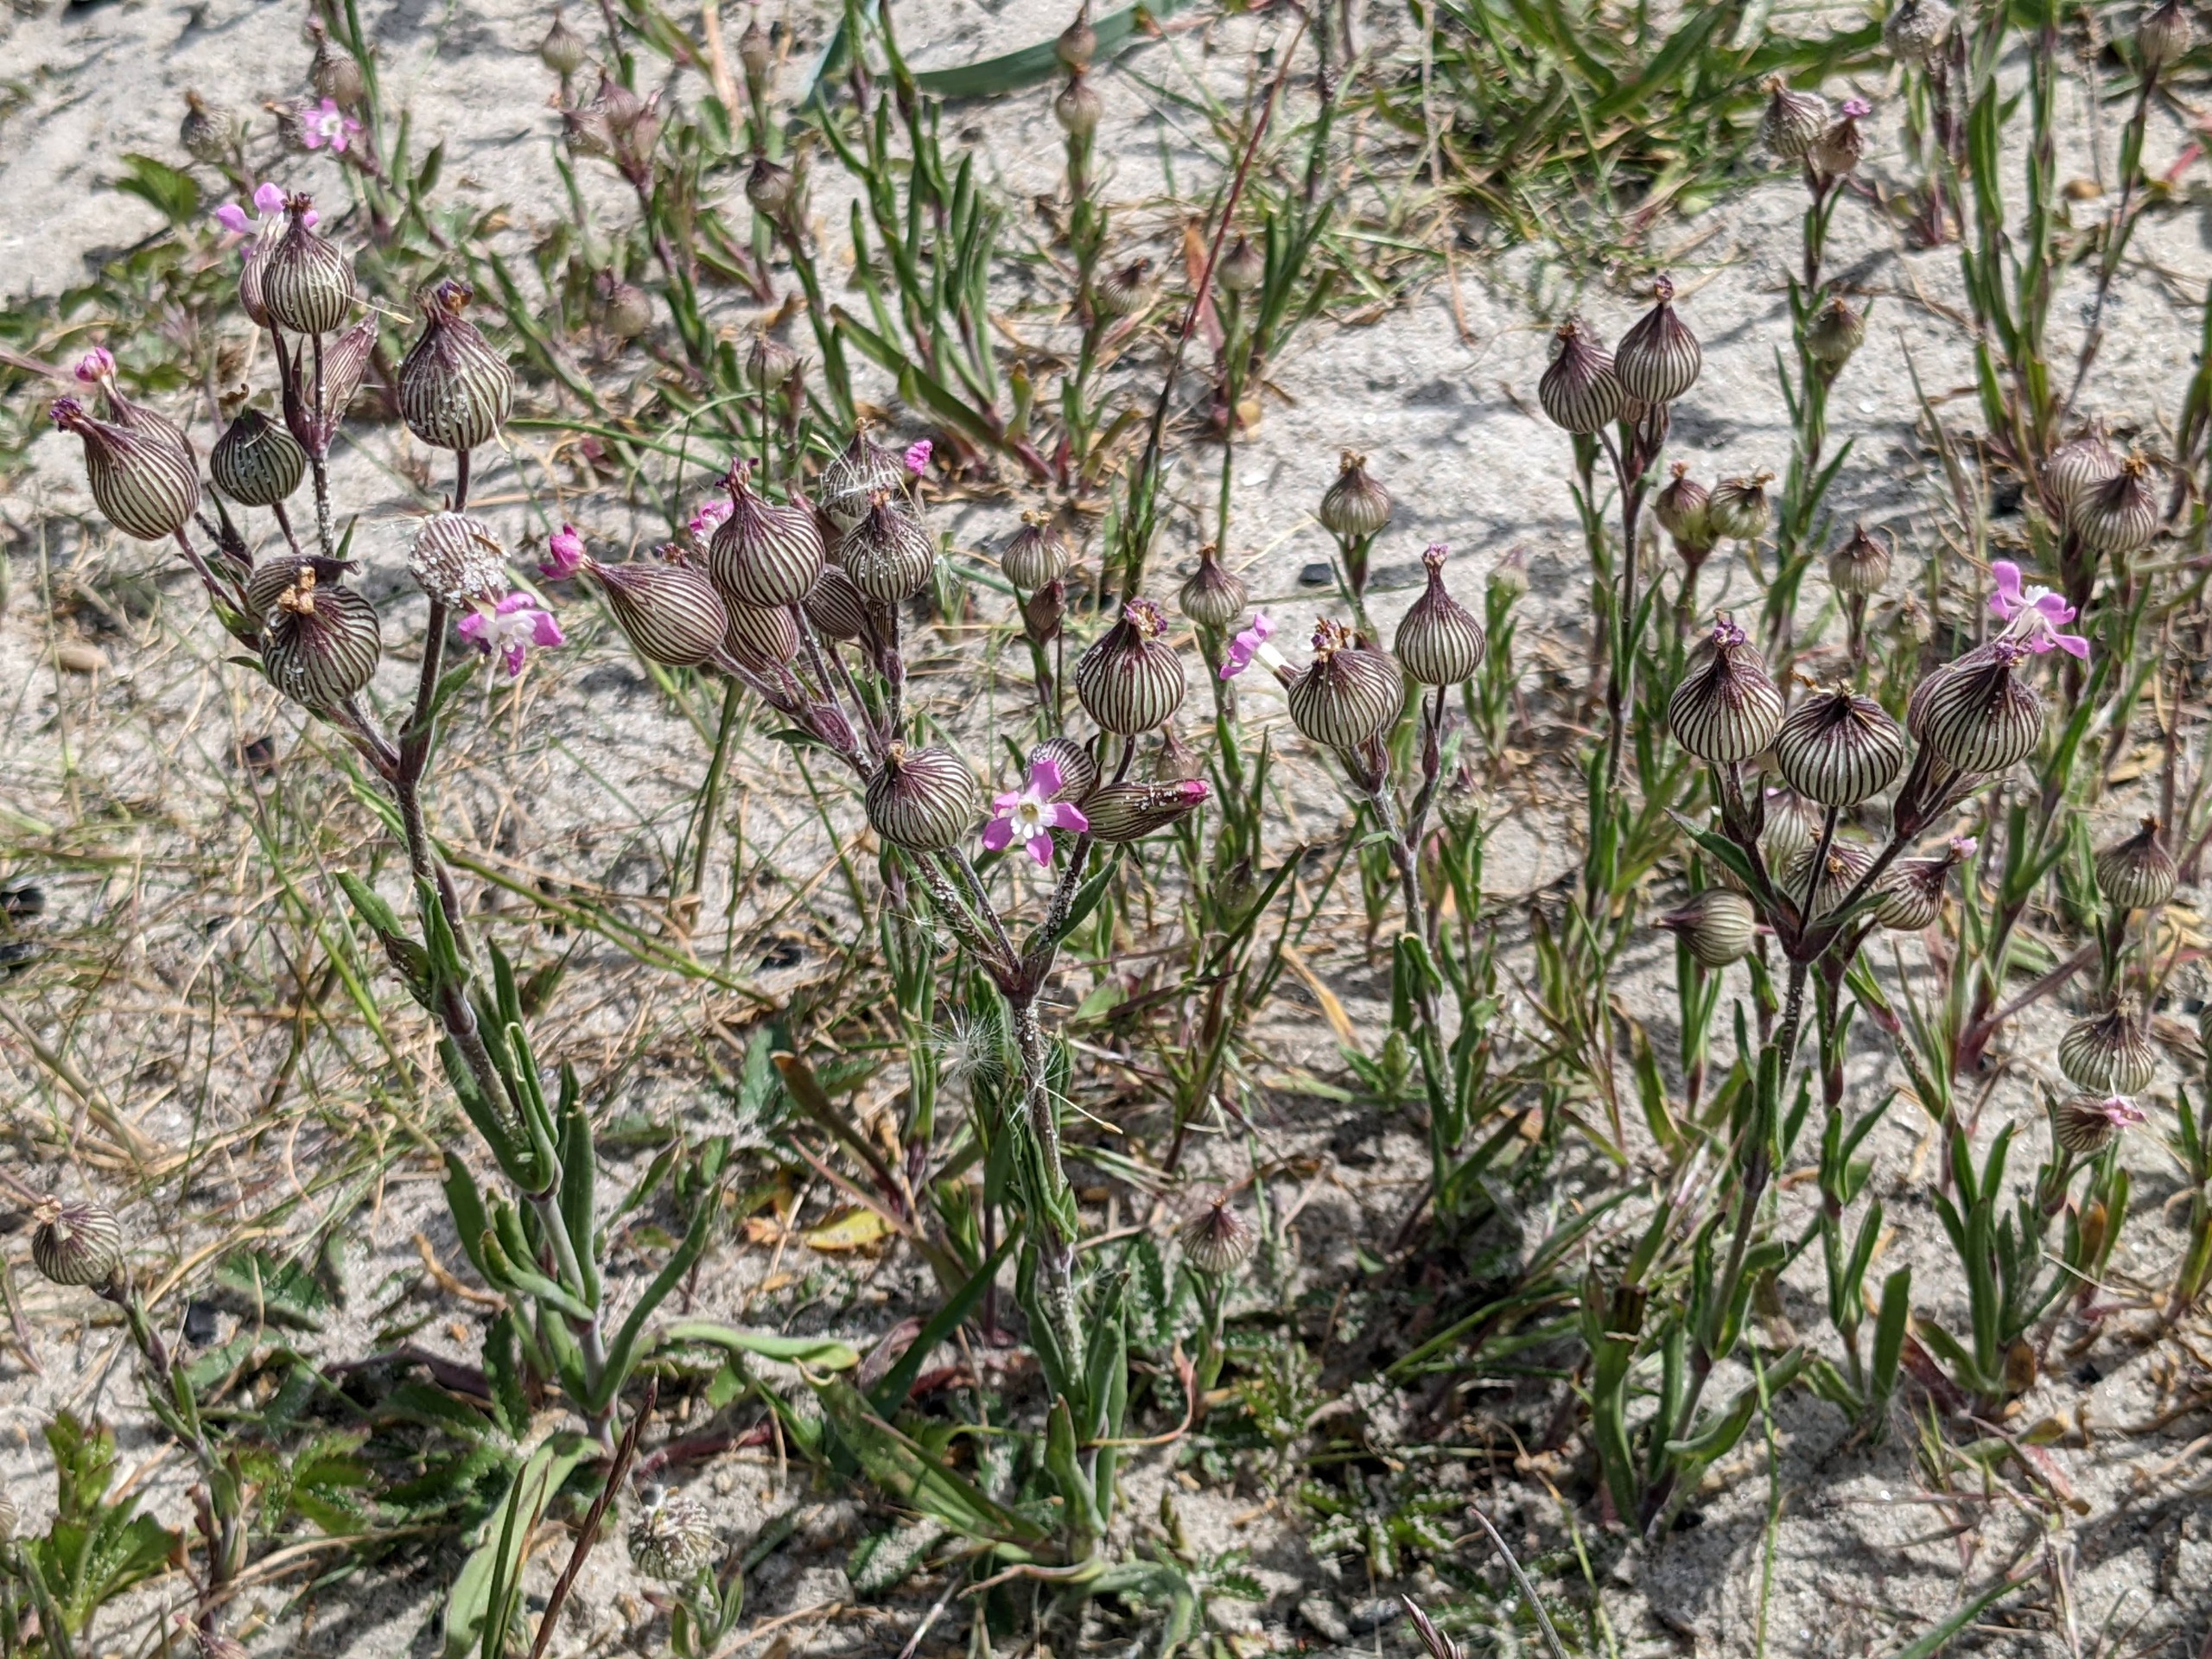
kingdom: Plantae
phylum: Tracheophyta
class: Magnoliopsida
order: Caryophyllales
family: Caryophyllaceae
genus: Silene
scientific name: Silene conica
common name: Kegle-limurt
